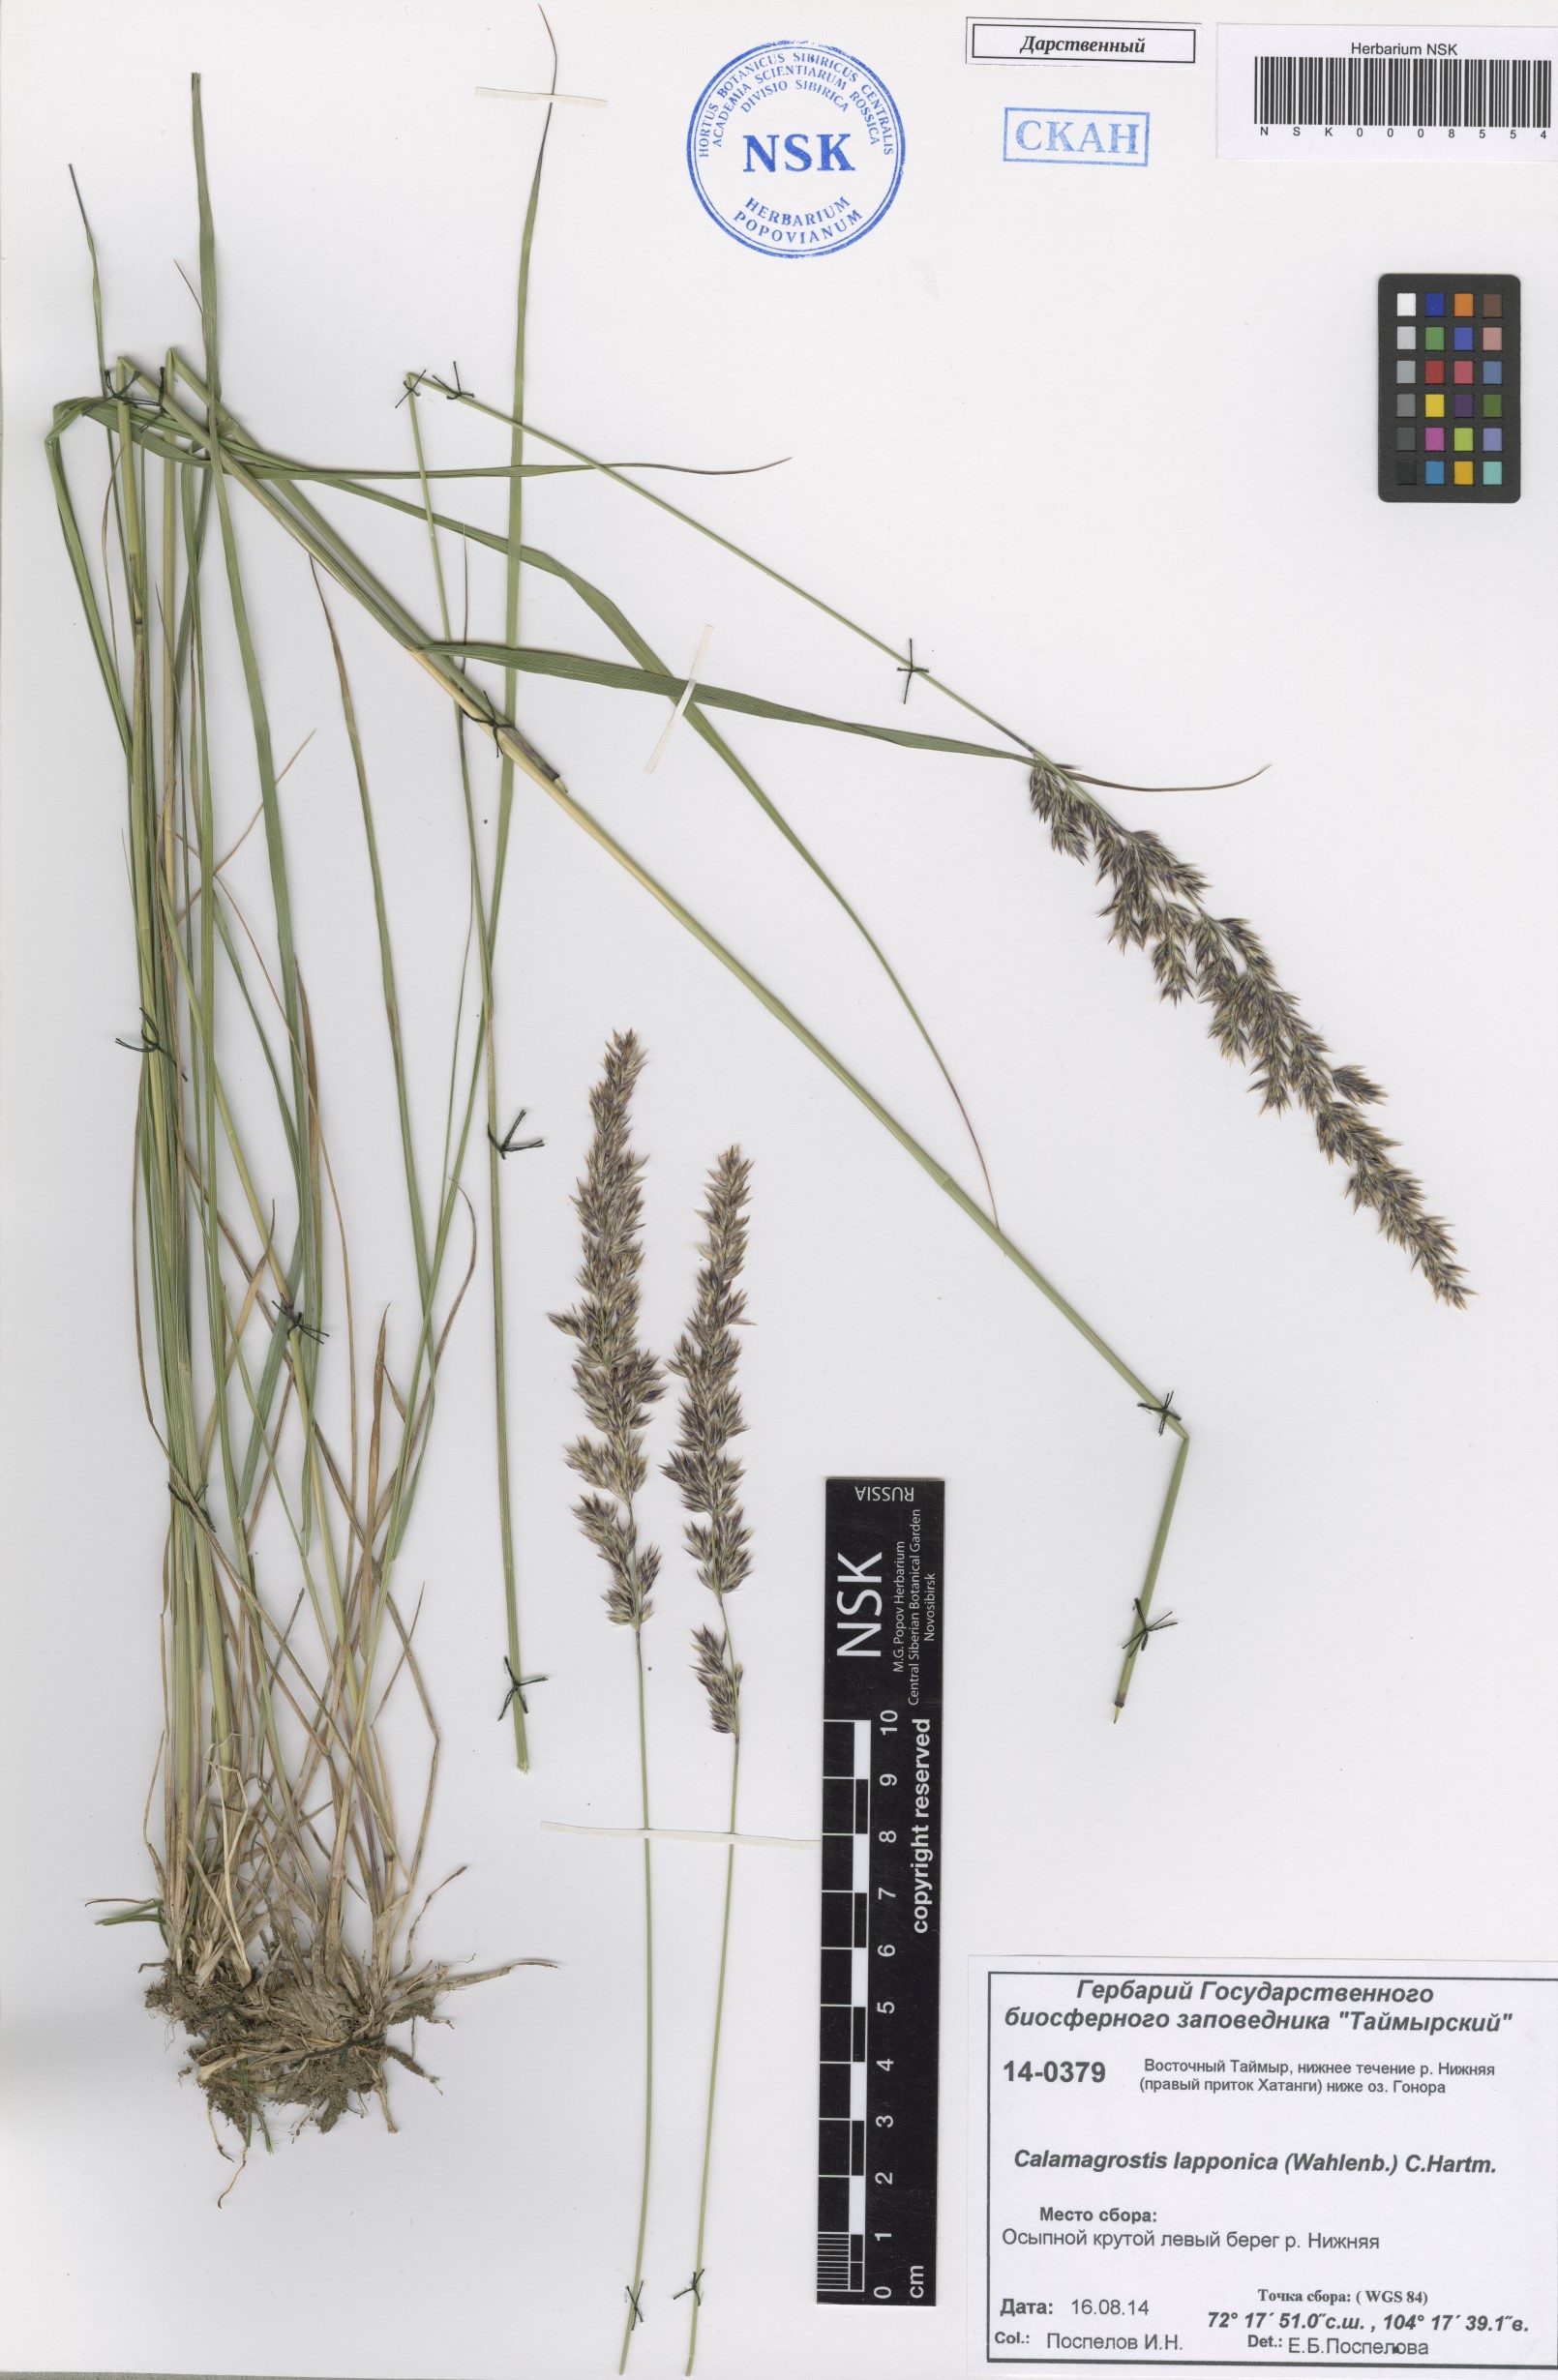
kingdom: Plantae
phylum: Tracheophyta
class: Liliopsida
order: Poales
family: Poaceae
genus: Calamagrostis
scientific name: Calamagrostis lapponica
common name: Lapland reedgrass
